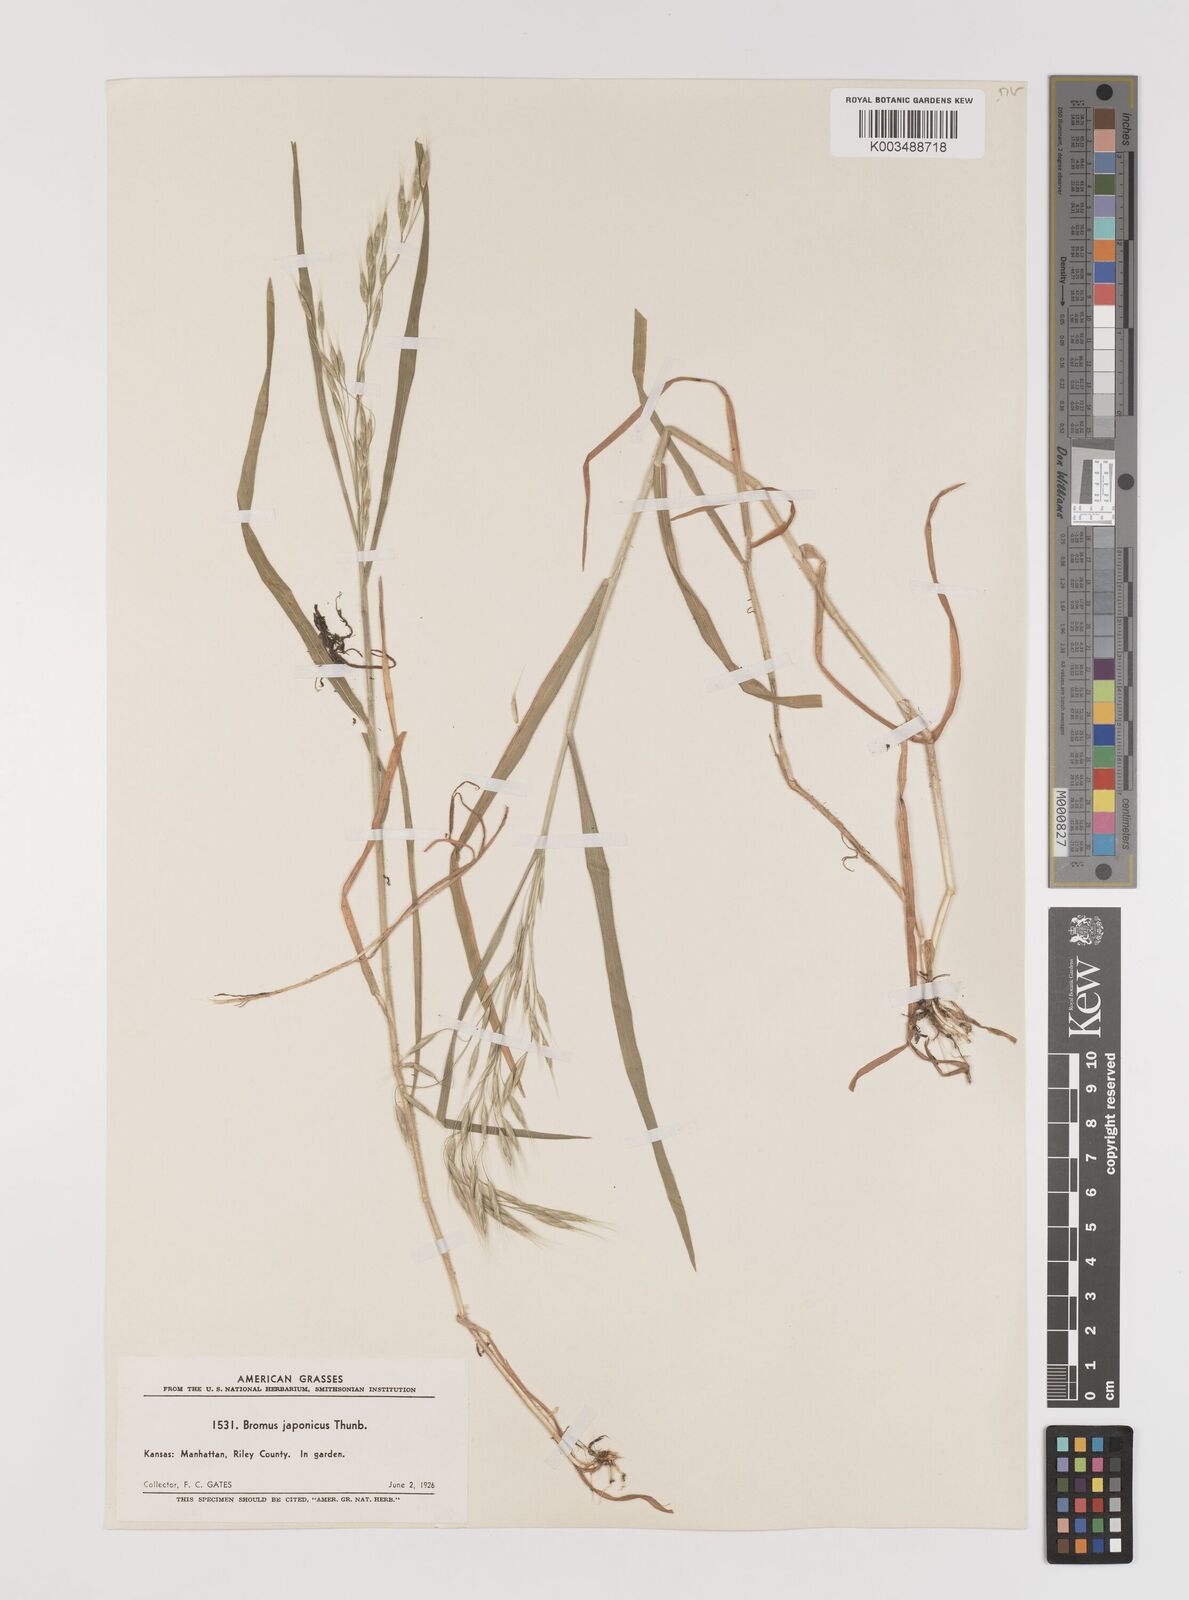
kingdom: Plantae
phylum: Tracheophyta
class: Liliopsida
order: Poales
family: Poaceae
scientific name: Poaceae
